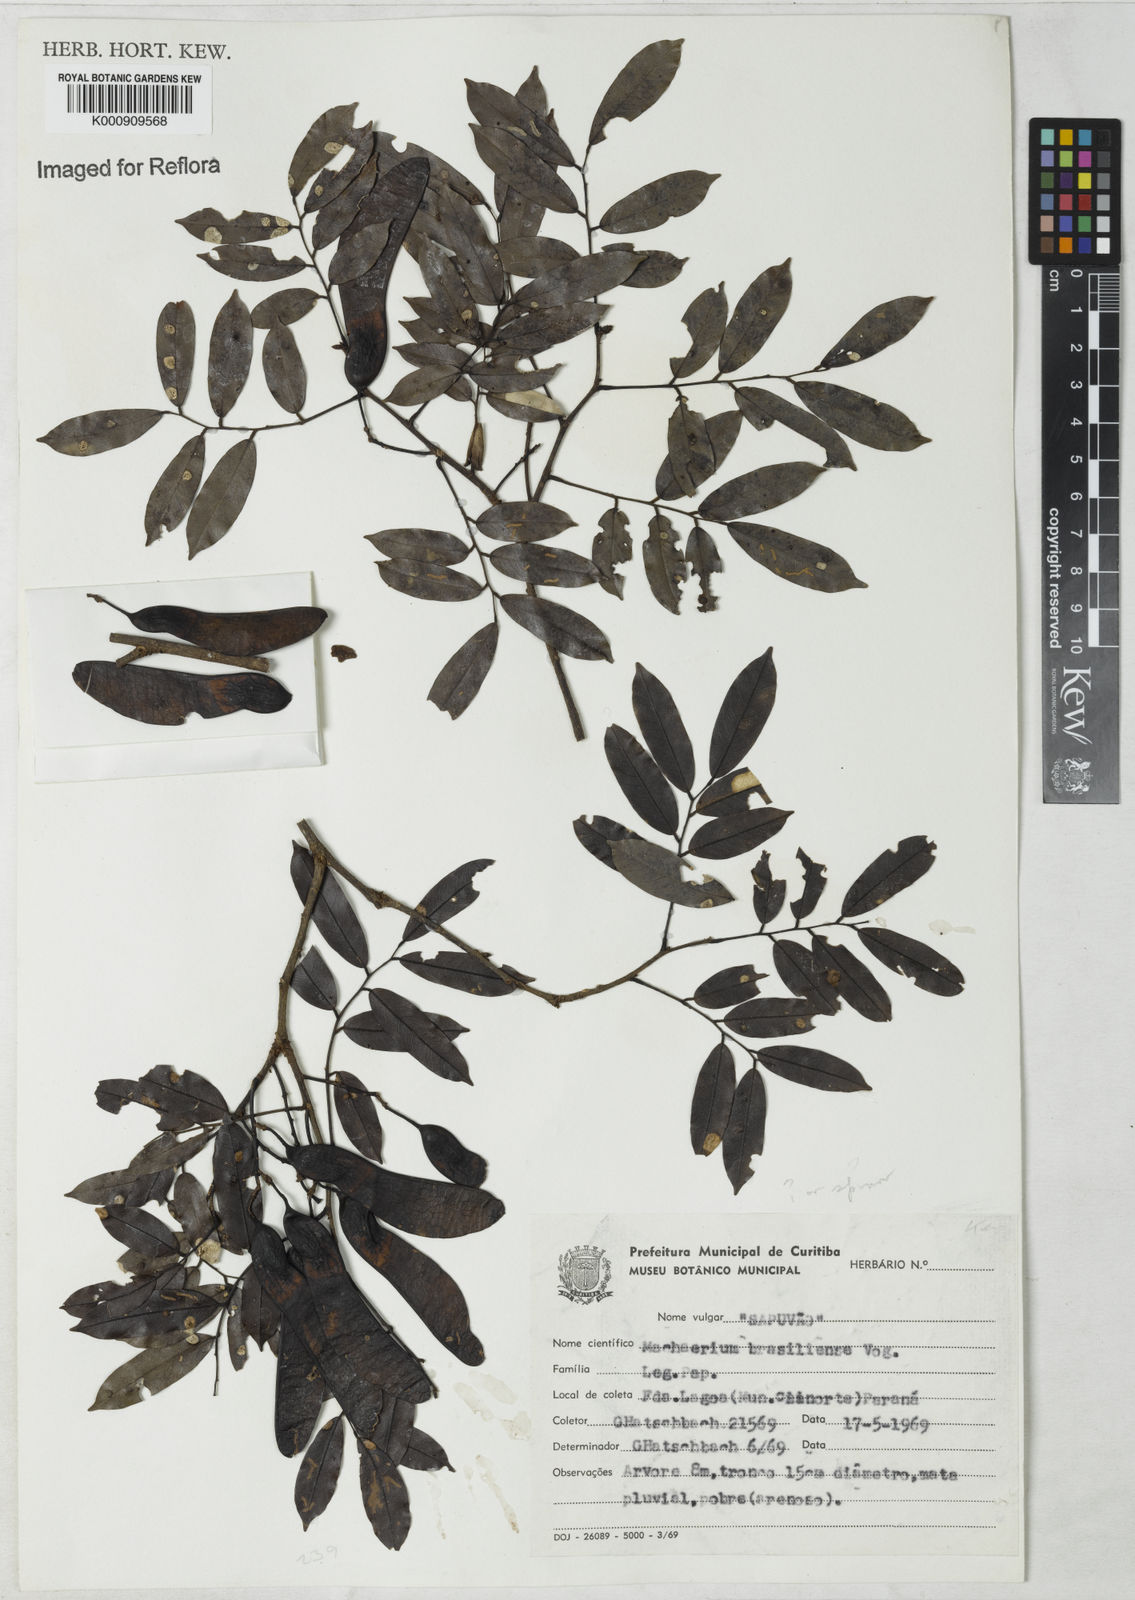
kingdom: Plantae
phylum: Tracheophyta
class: Magnoliopsida
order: Fabales
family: Fabaceae
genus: Machaerium
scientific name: Machaerium brasiliense
